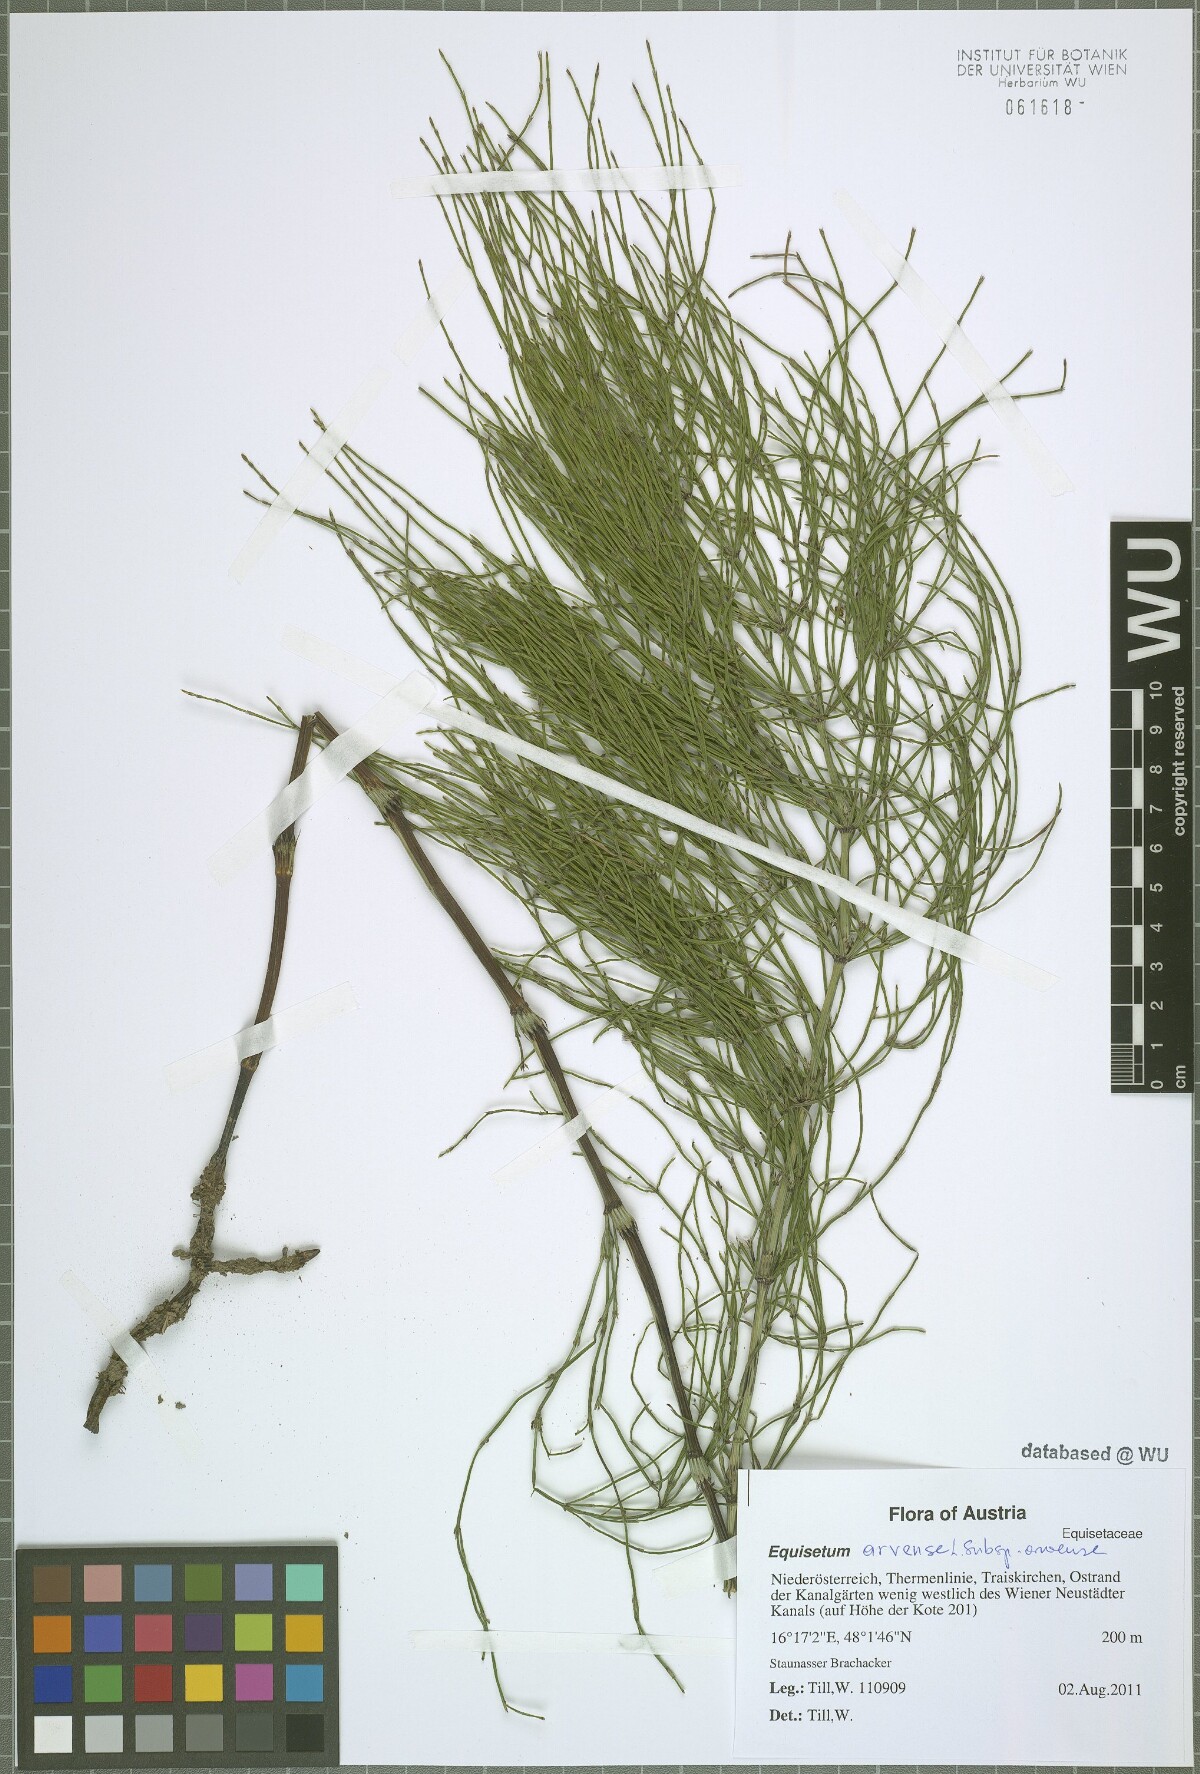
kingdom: Plantae
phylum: Tracheophyta
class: Polypodiopsida
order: Equisetales
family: Equisetaceae
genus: Equisetum
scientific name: Equisetum arvense
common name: Field horsetail
